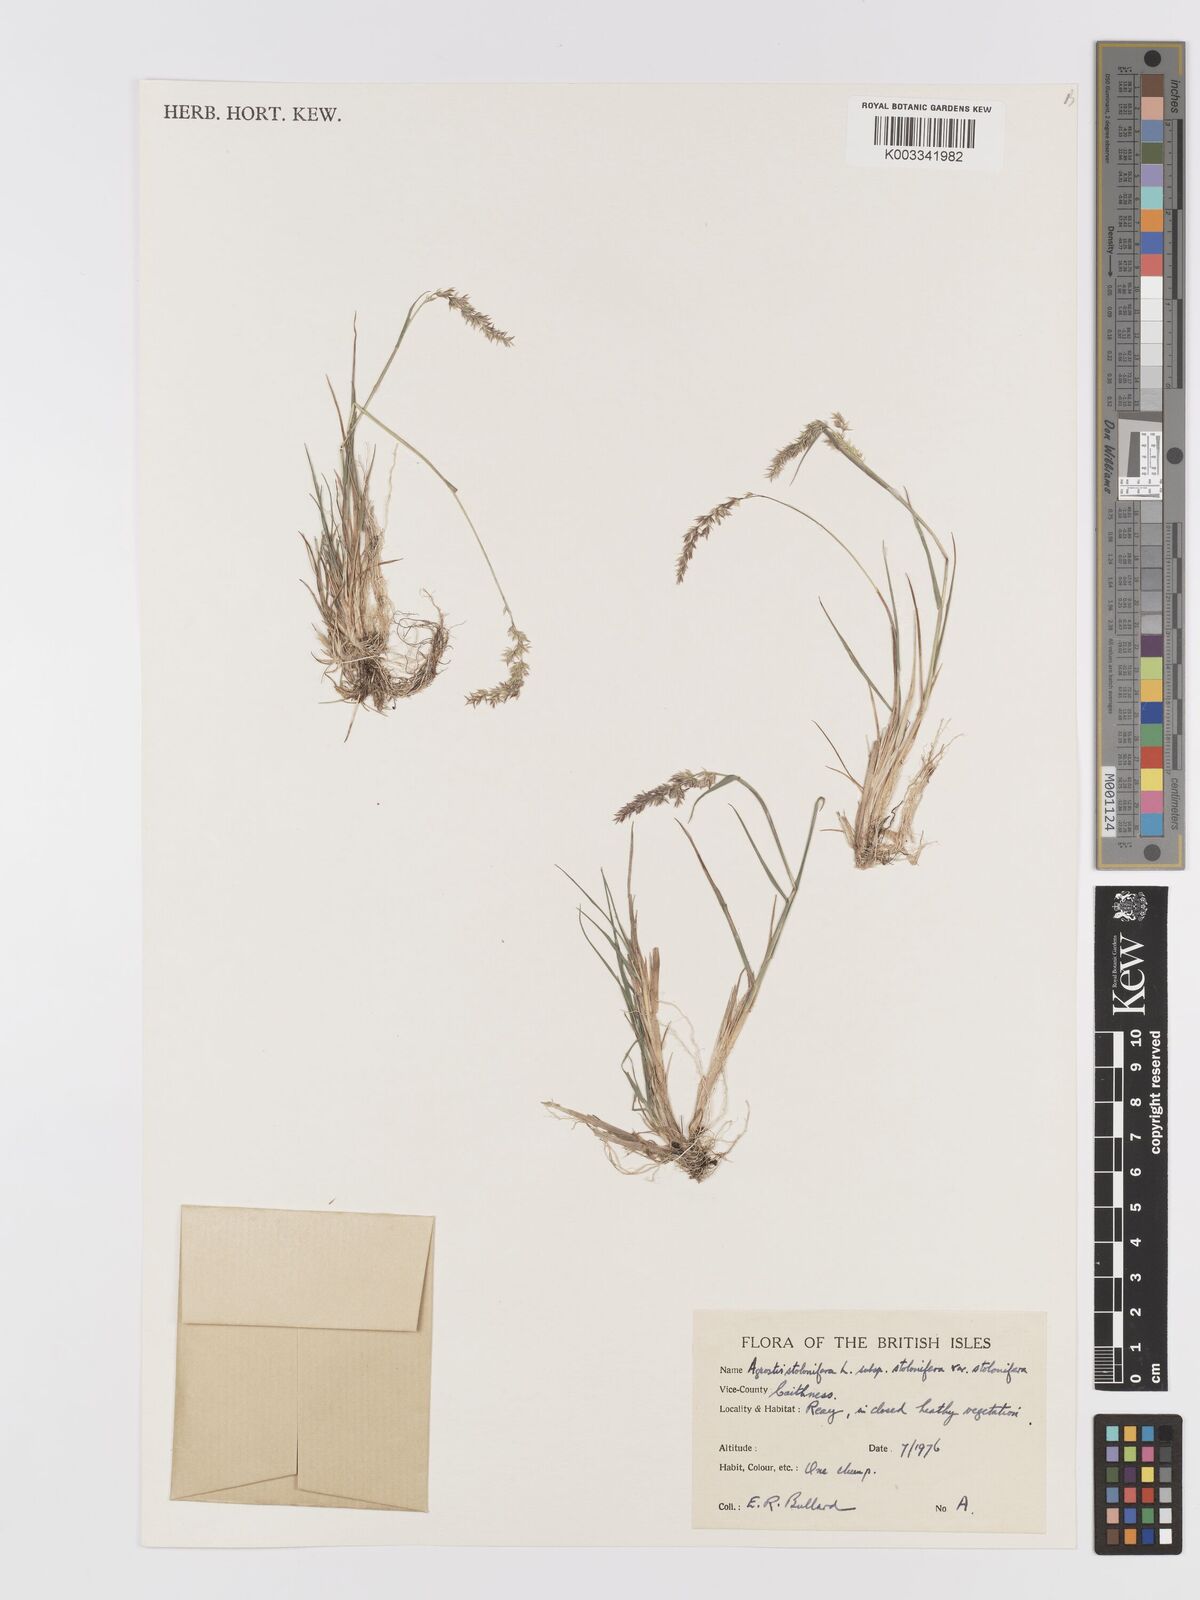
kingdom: Plantae
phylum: Tracheophyta
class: Liliopsida
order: Poales
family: Poaceae
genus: Agrostis
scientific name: Agrostis stolonifera
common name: Creeping bentgrass
